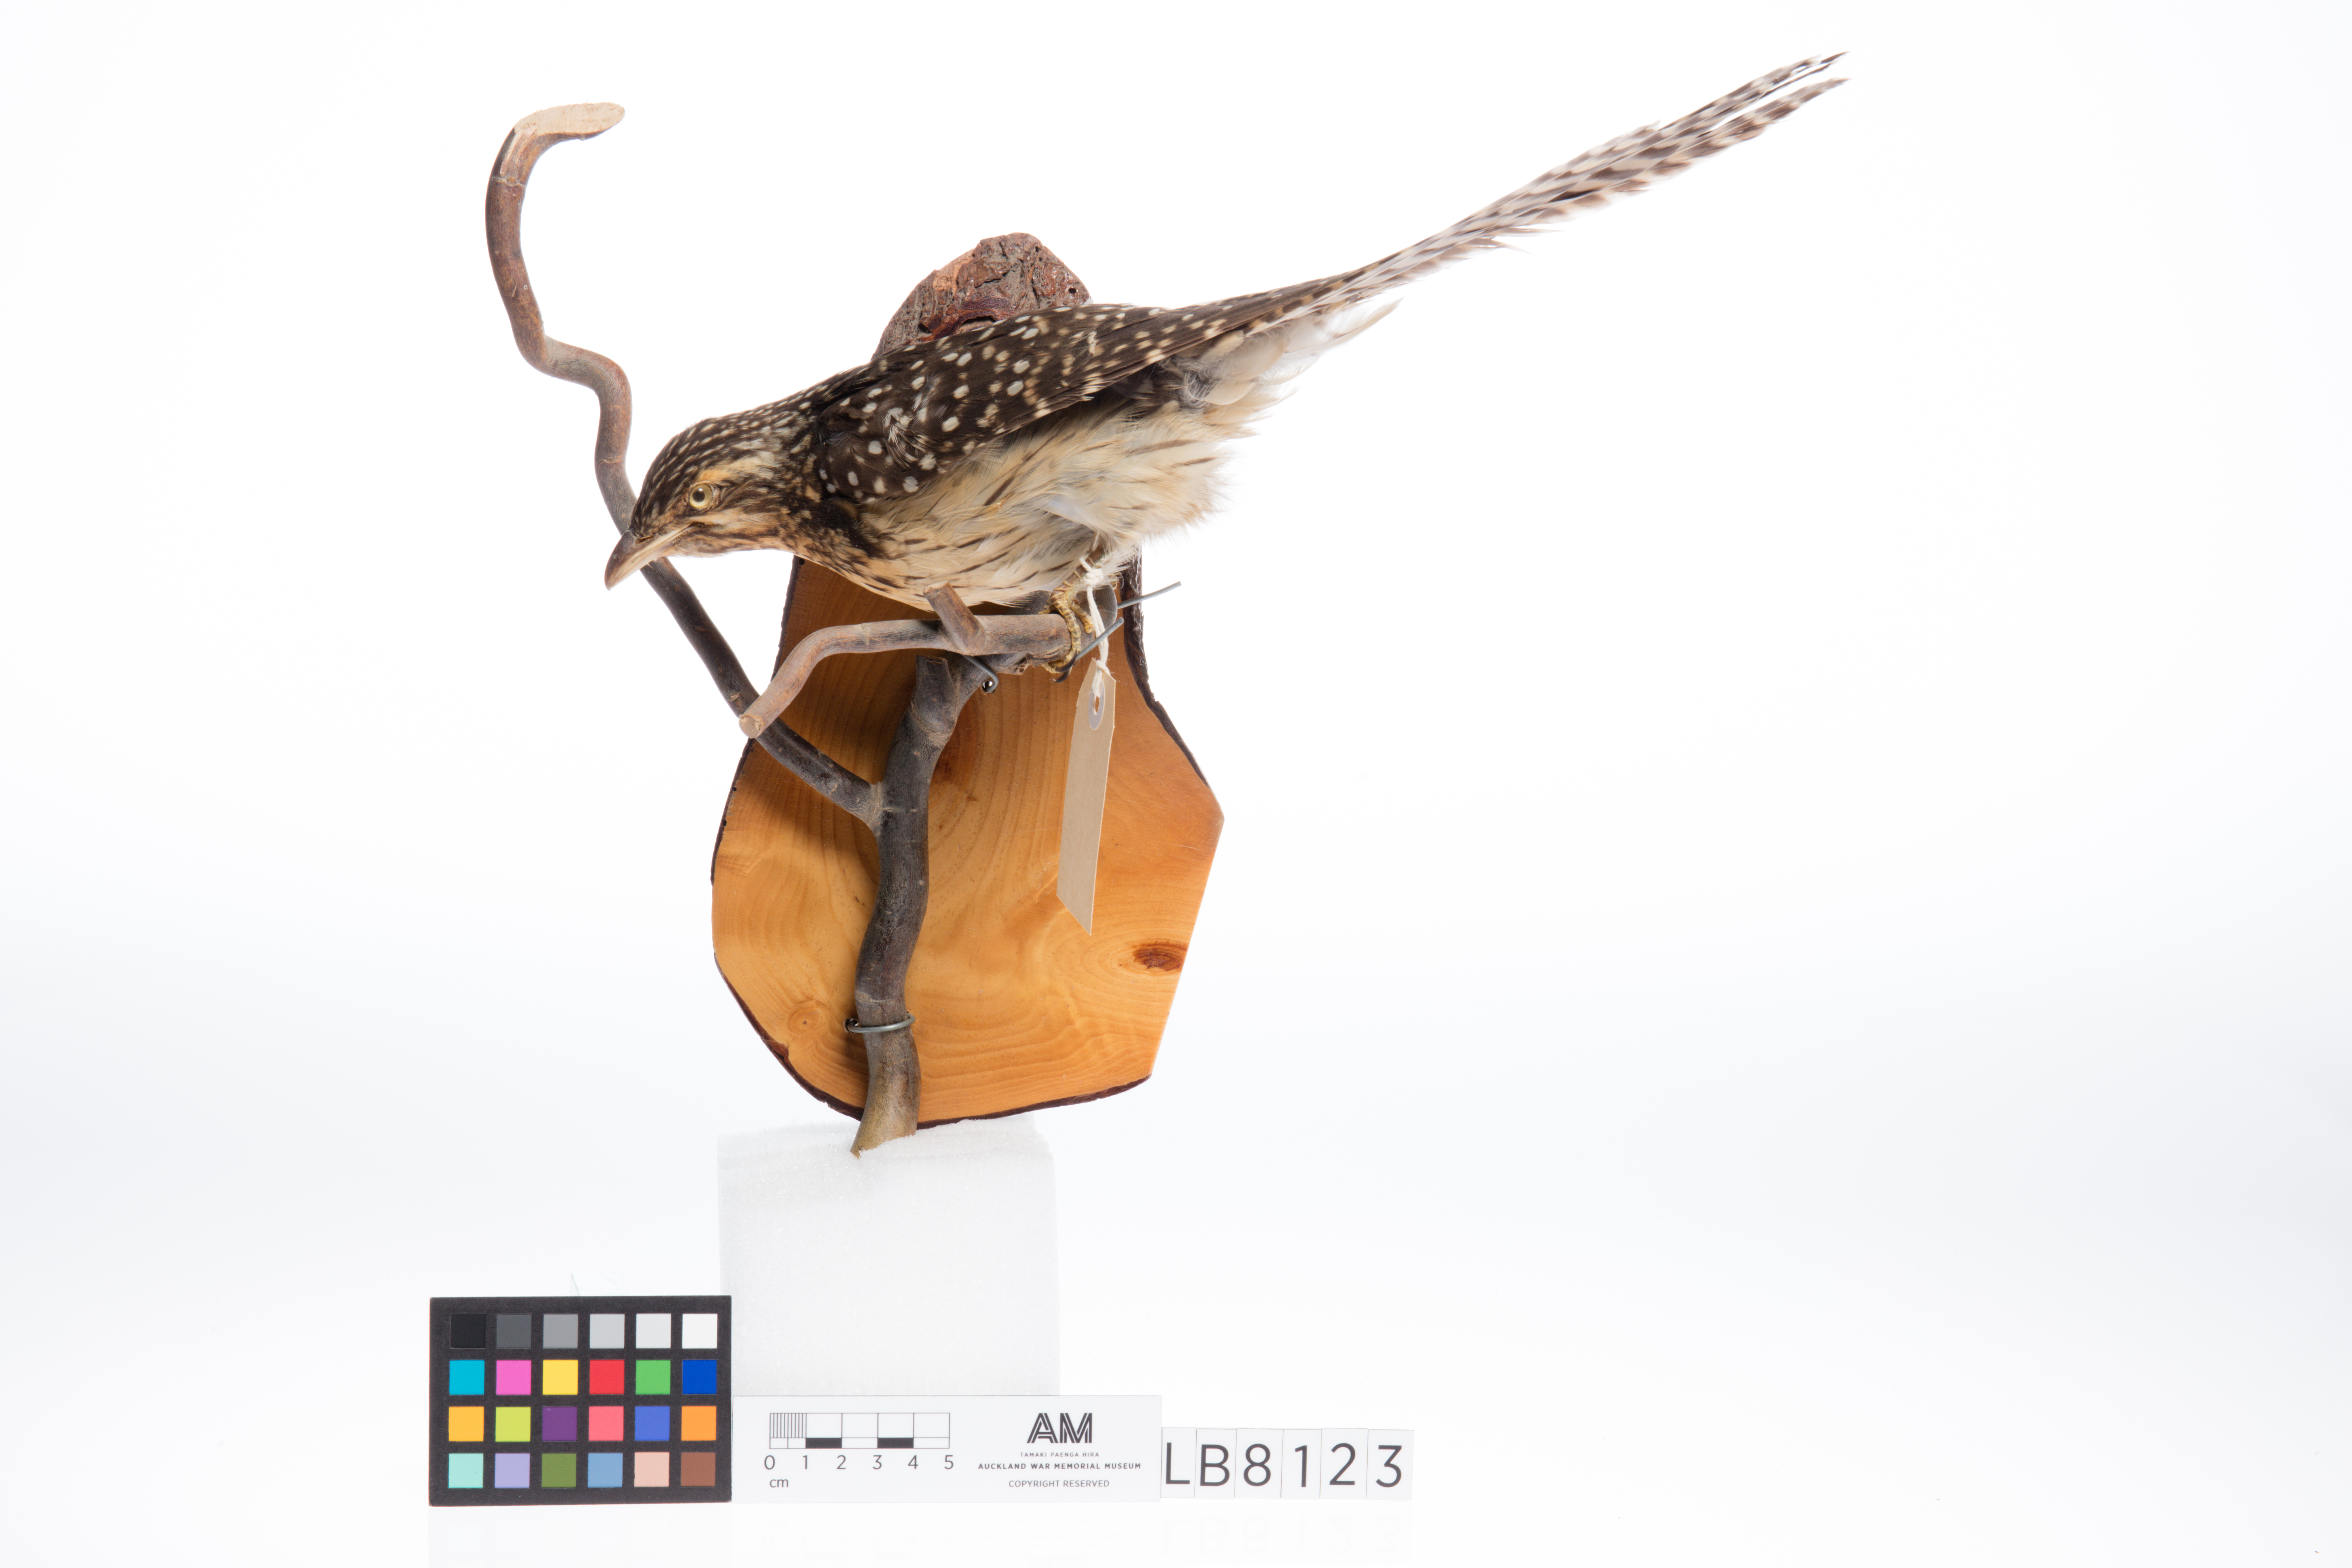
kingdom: Animalia
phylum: Chordata
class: Aves
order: Cuculiformes
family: Cuculidae
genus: Urodynamis
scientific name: Urodynamis taitensis
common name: Long-tailed koel
